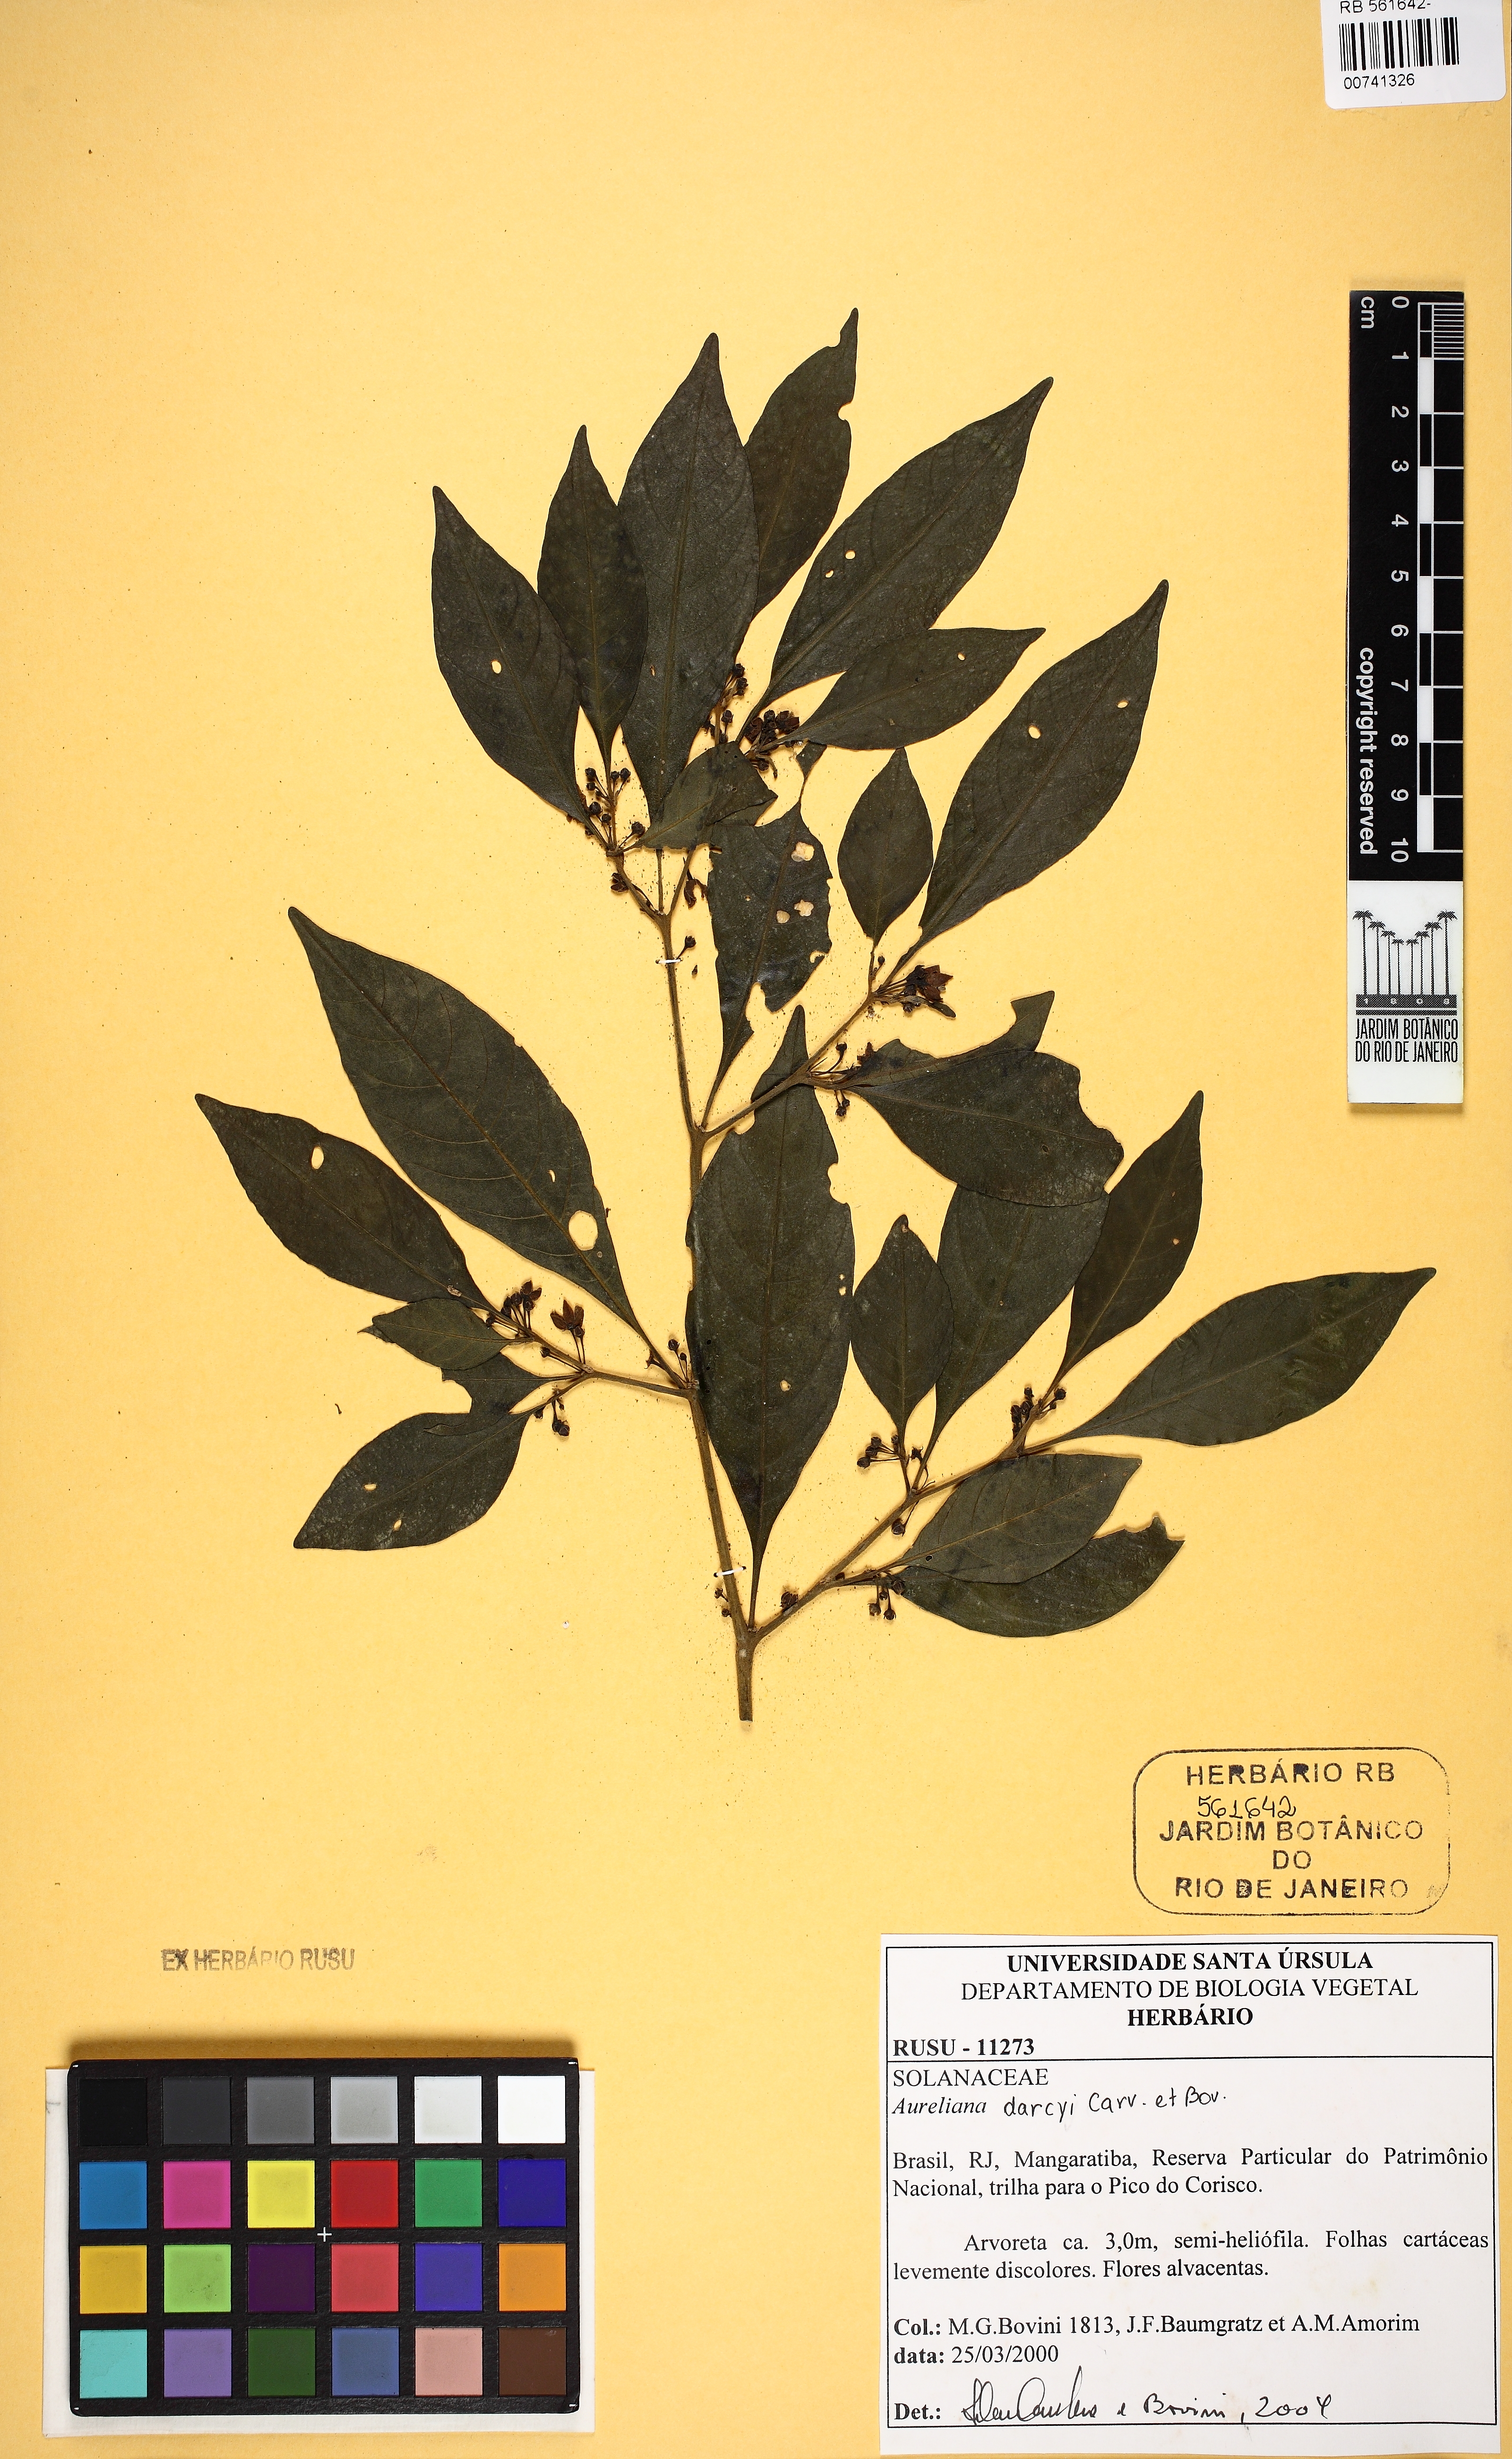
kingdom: Plantae
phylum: Tracheophyta
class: Magnoliopsida
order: Solanales
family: Solanaceae
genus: Athenaea
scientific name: Athenaea fasciculata
